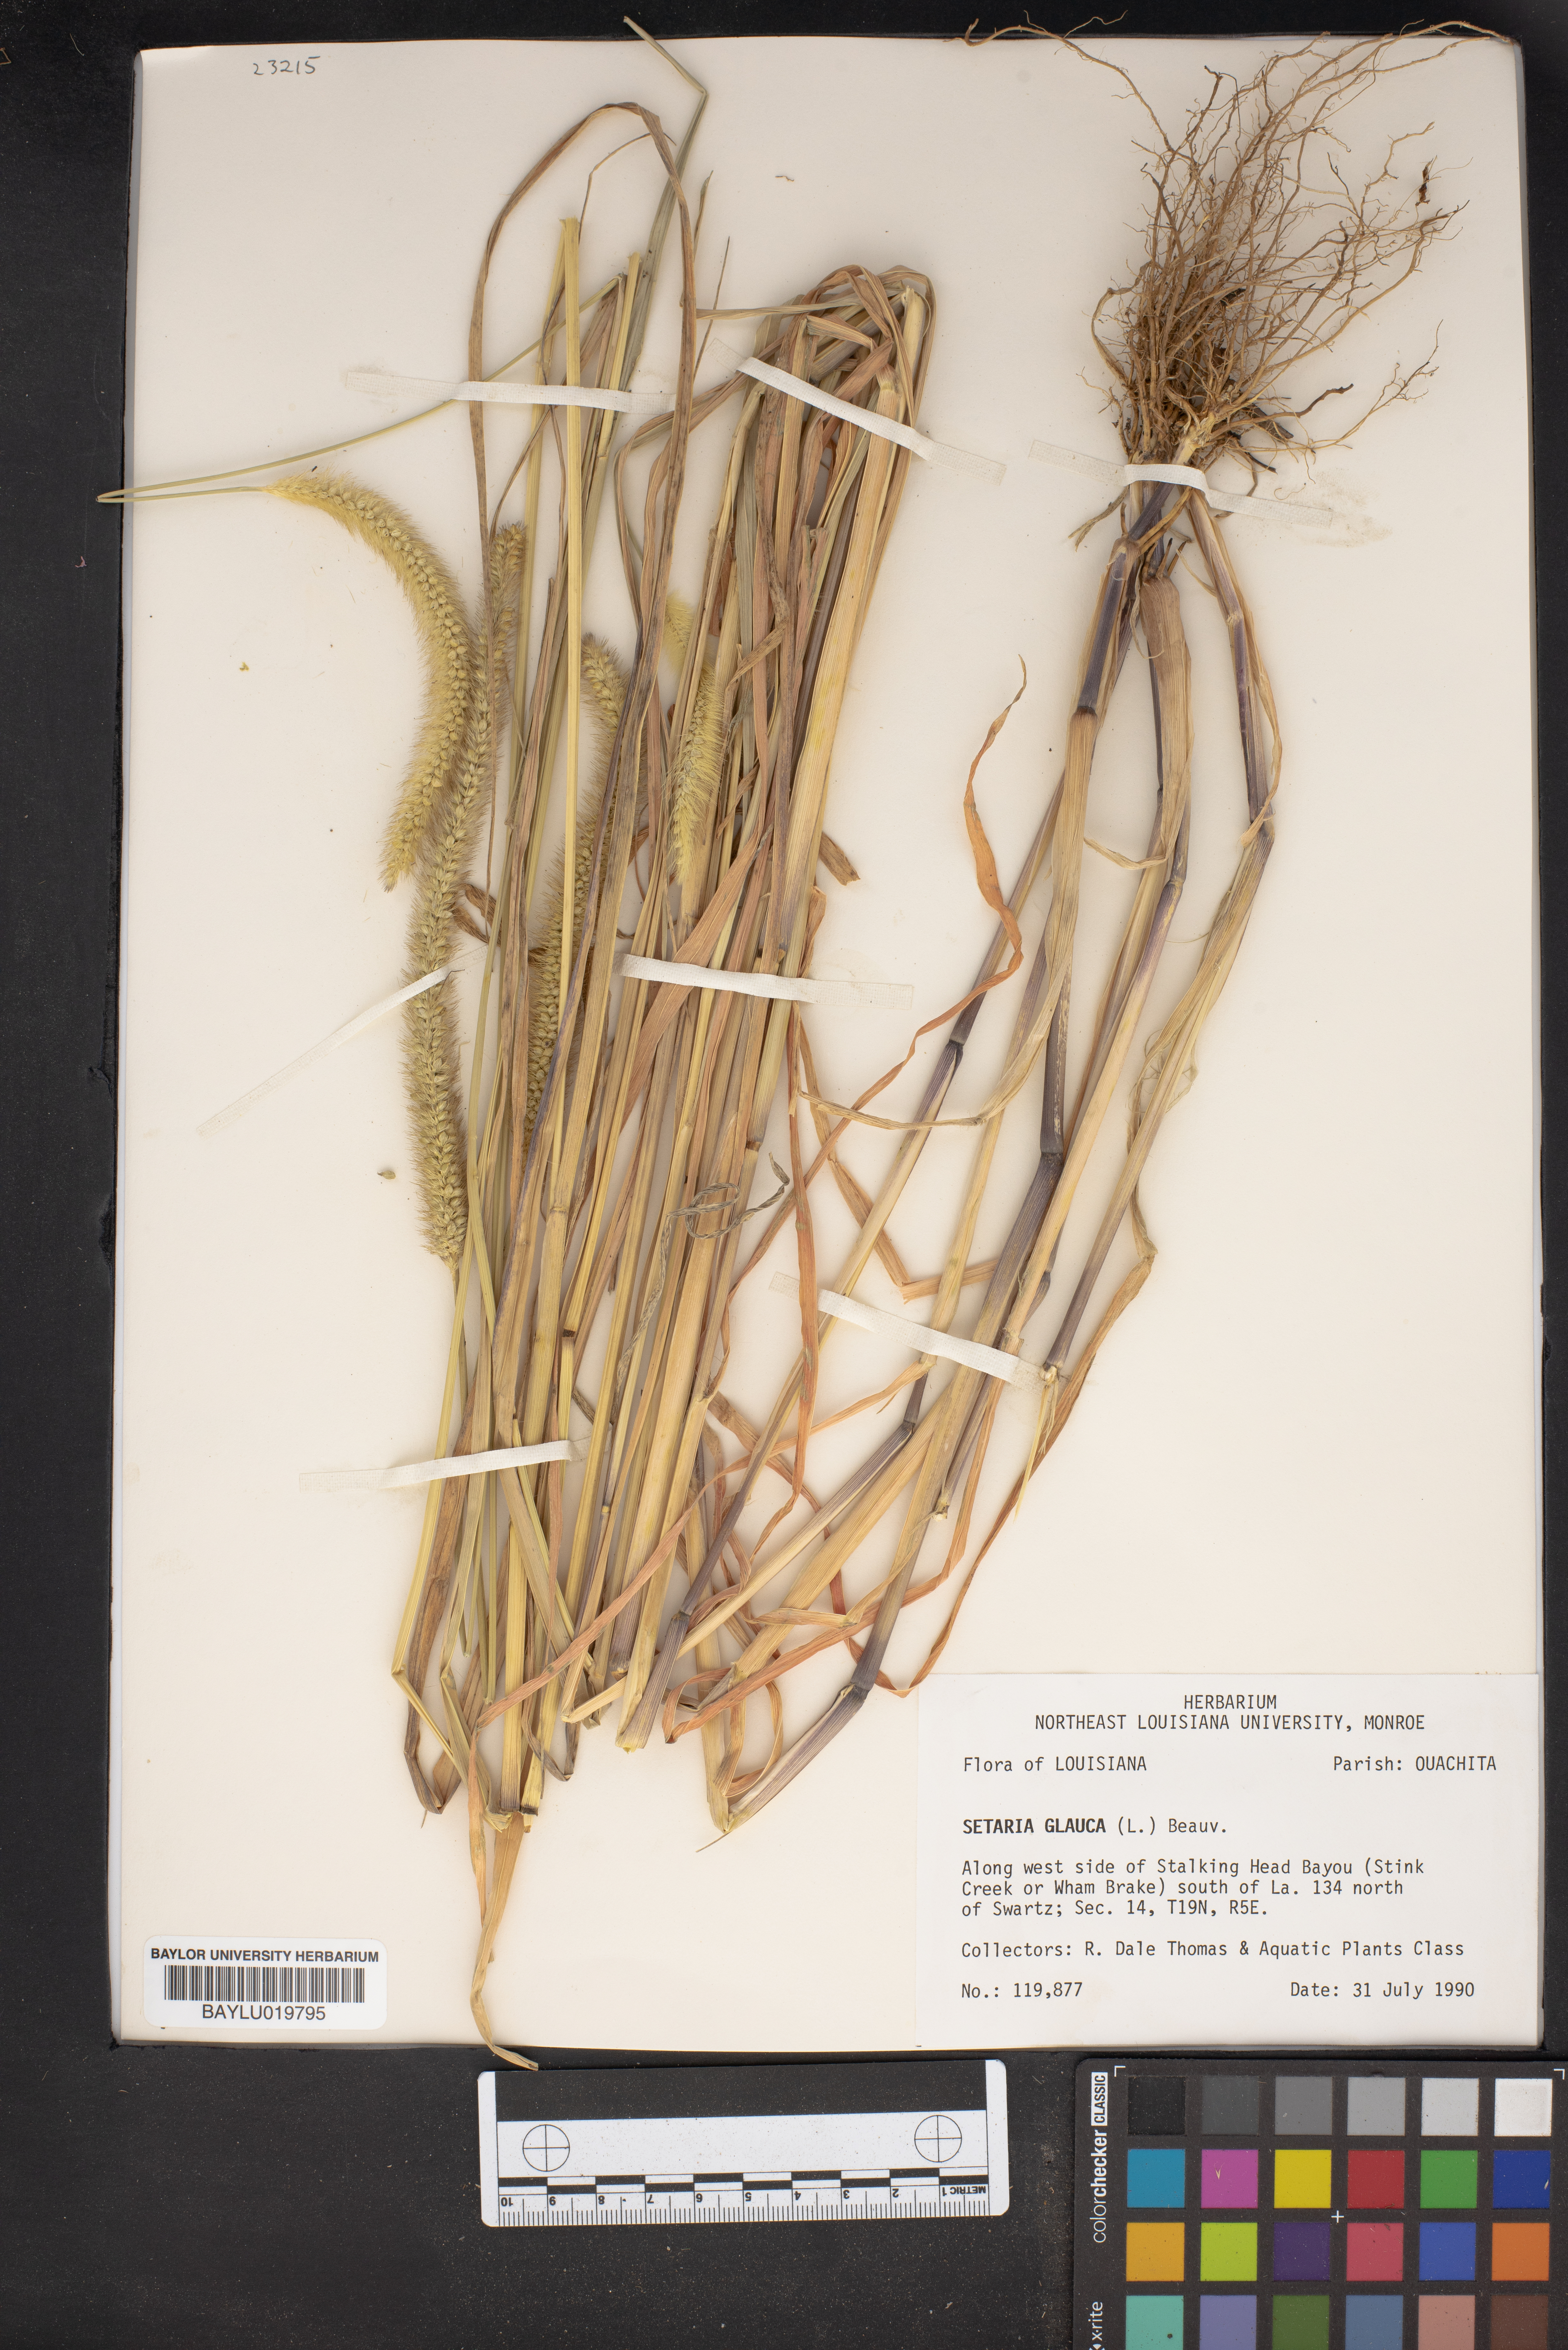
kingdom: Plantae
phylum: Tracheophyta
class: Liliopsida
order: Poales
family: Poaceae
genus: Cenchrus
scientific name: Cenchrus americanus
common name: Pearl millet
